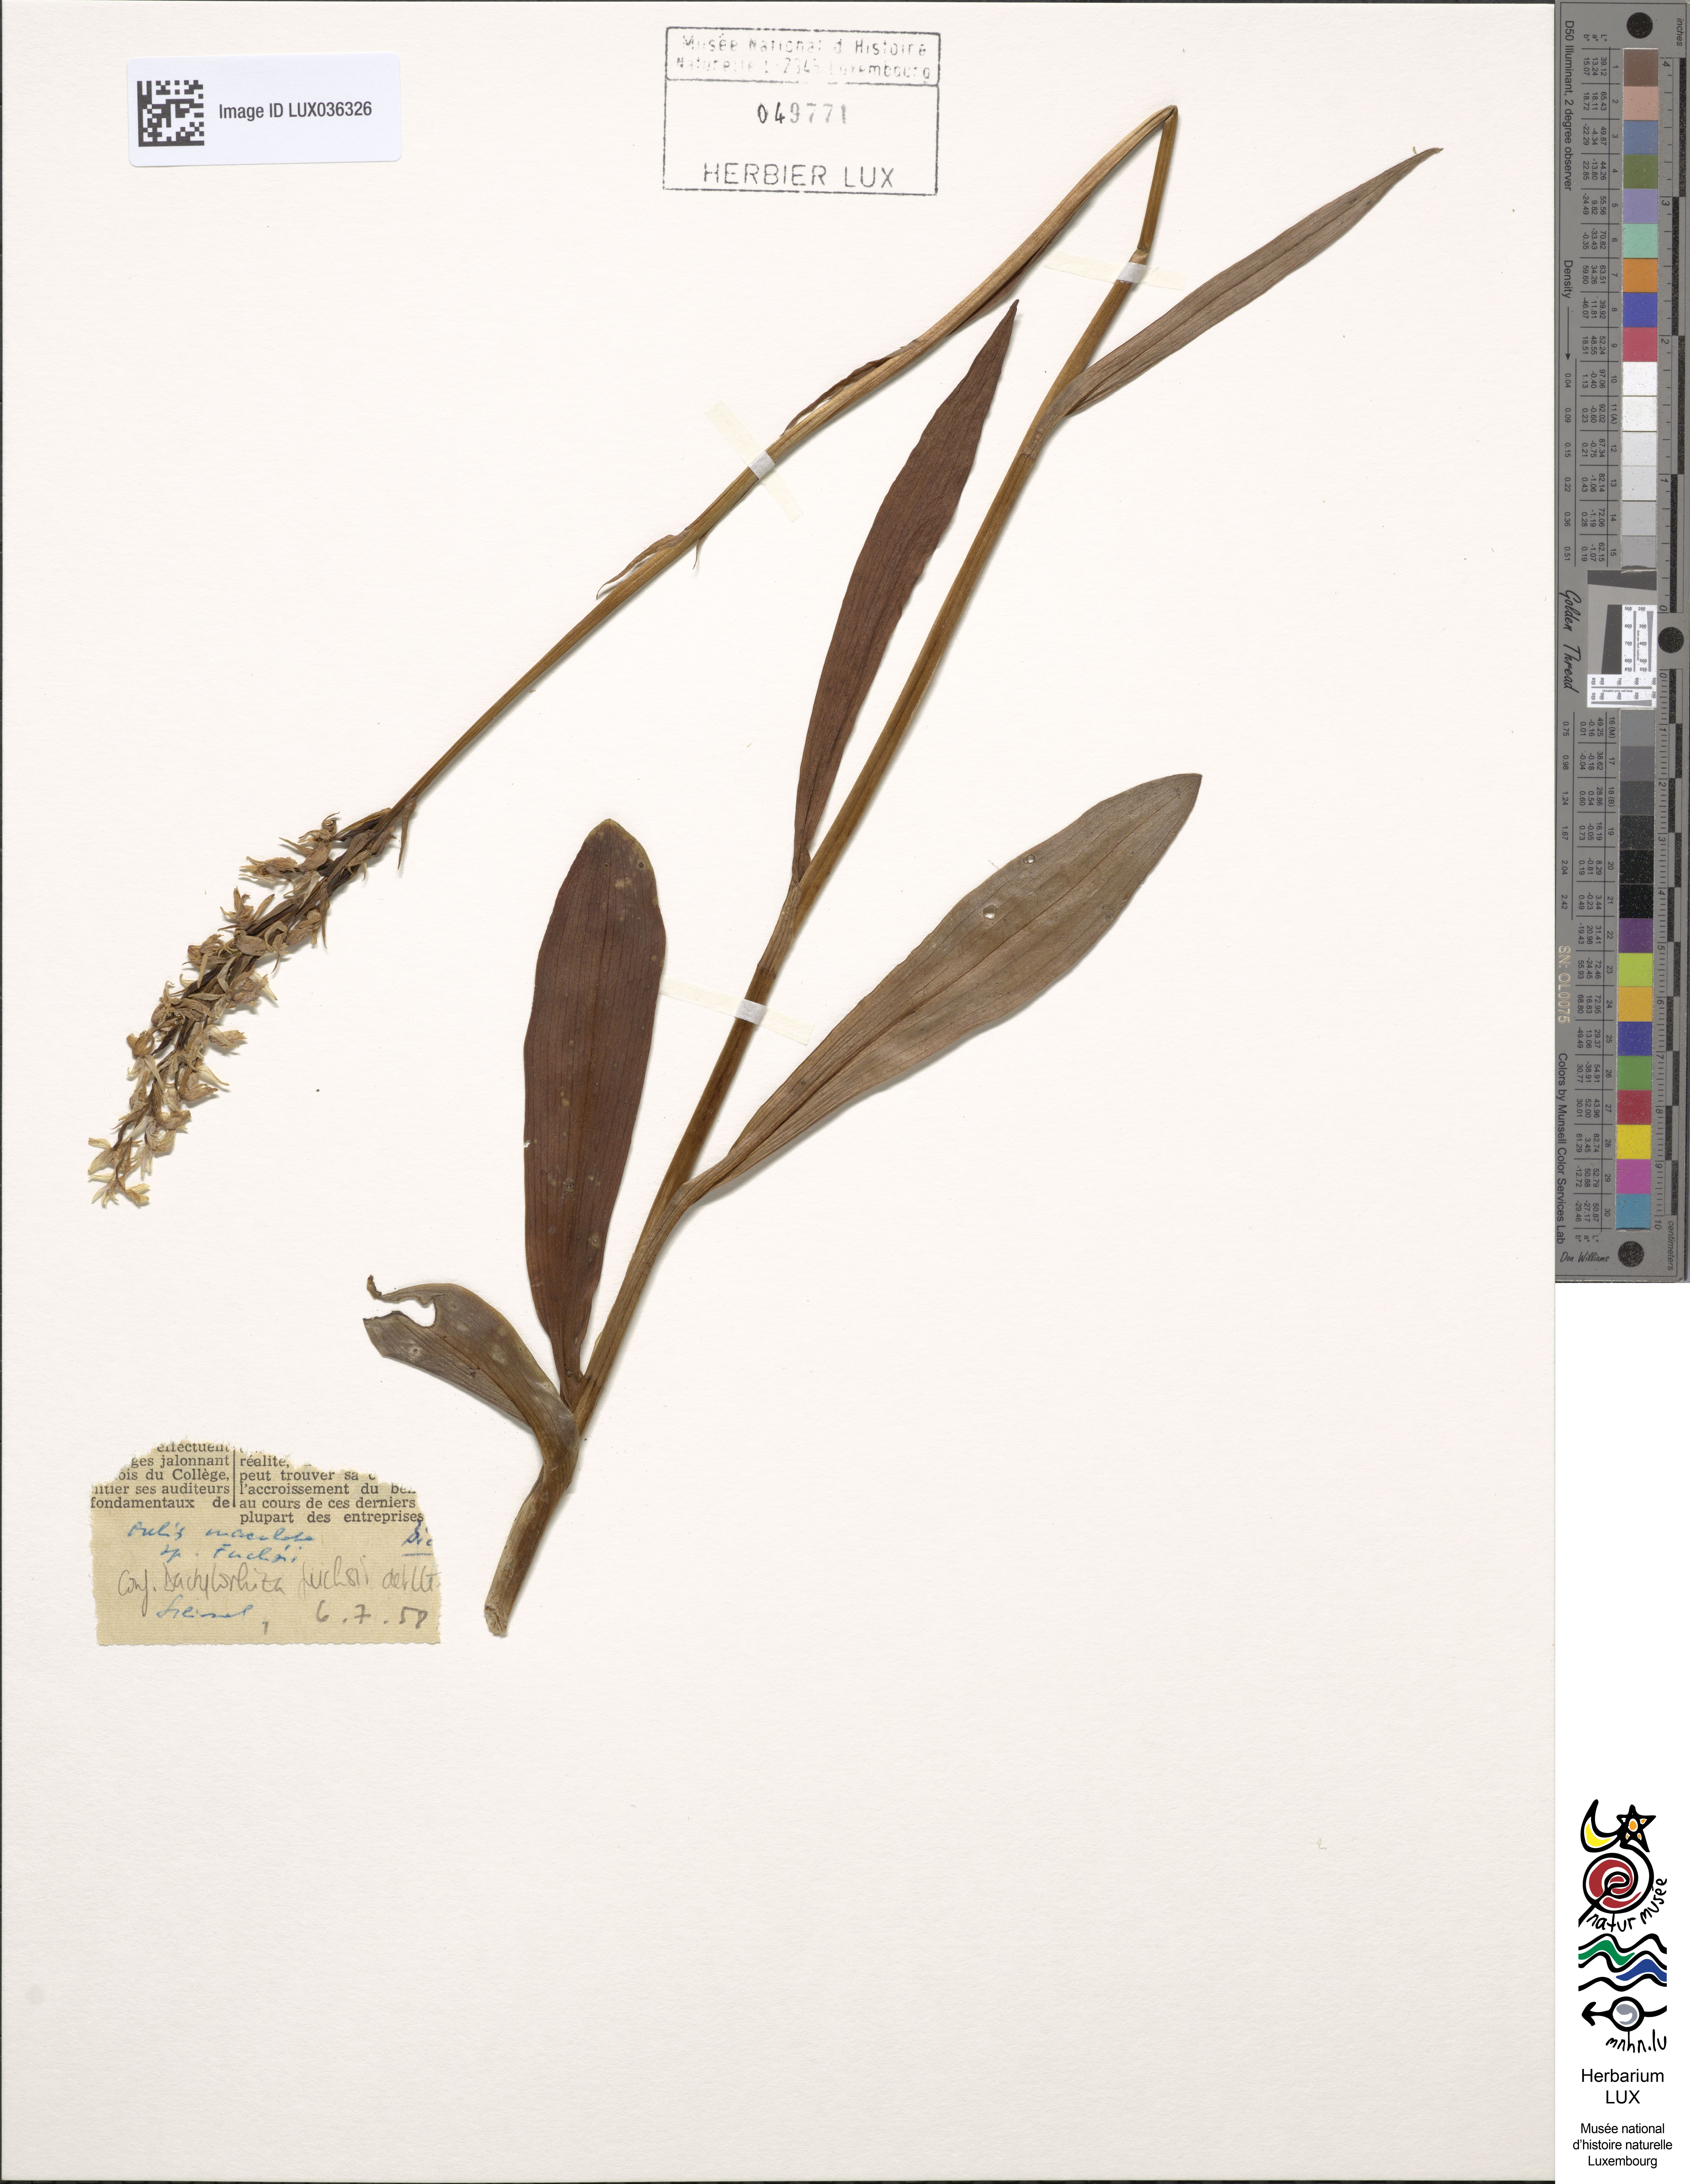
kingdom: Plantae
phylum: Tracheophyta
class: Liliopsida
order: Asparagales
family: Orchidaceae
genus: Dactylorhiza
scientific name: Dactylorhiza maculata
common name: Heath spotted-orchid
